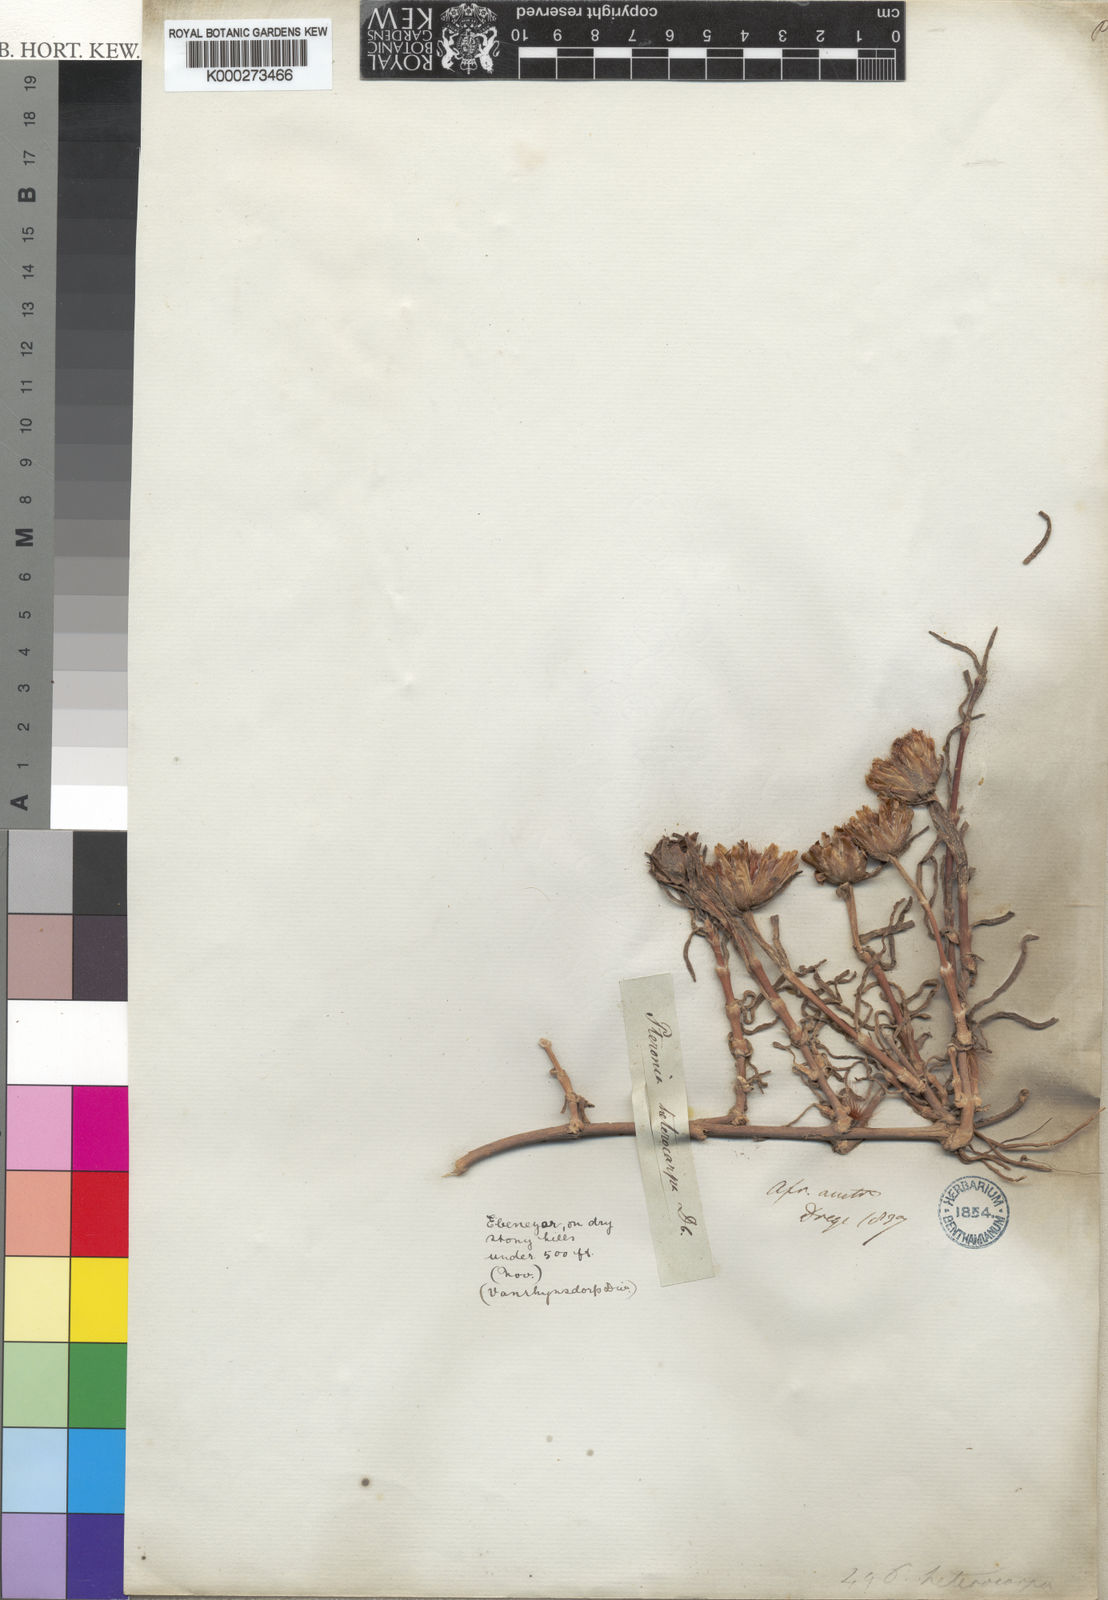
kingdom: Plantae
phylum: Tracheophyta
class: Magnoliopsida
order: Asterales
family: Asteraceae
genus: Pteronia
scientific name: Pteronia heterocarpa
